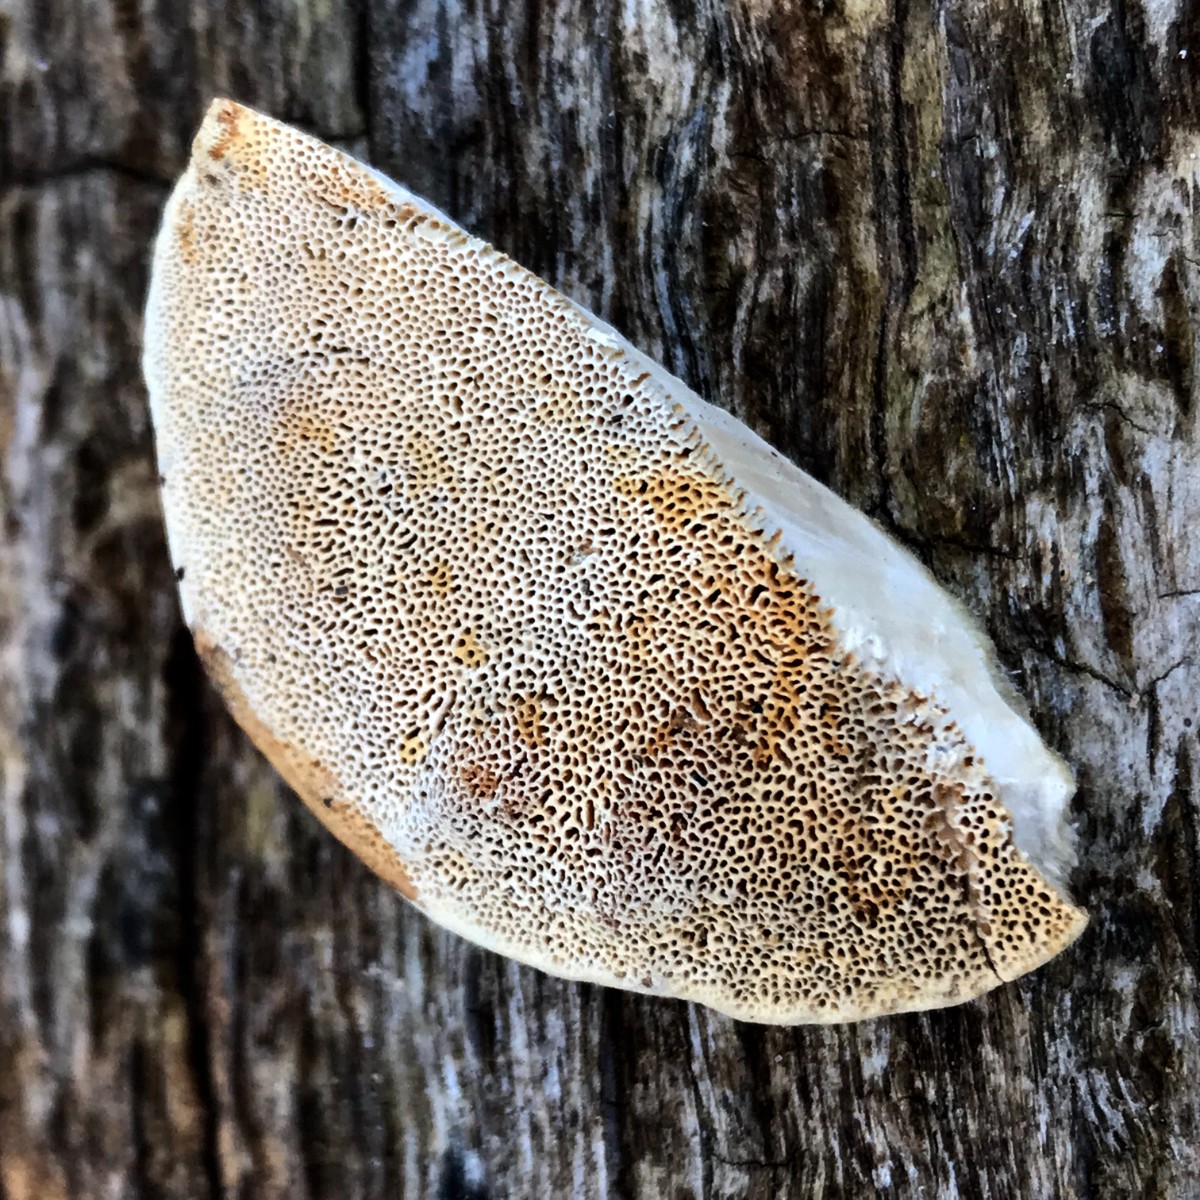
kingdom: Fungi
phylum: Basidiomycota
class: Agaricomycetes
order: Polyporales
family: Polyporaceae
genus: Trametes
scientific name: Trametes hirsuta
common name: håret læderporesvamp
